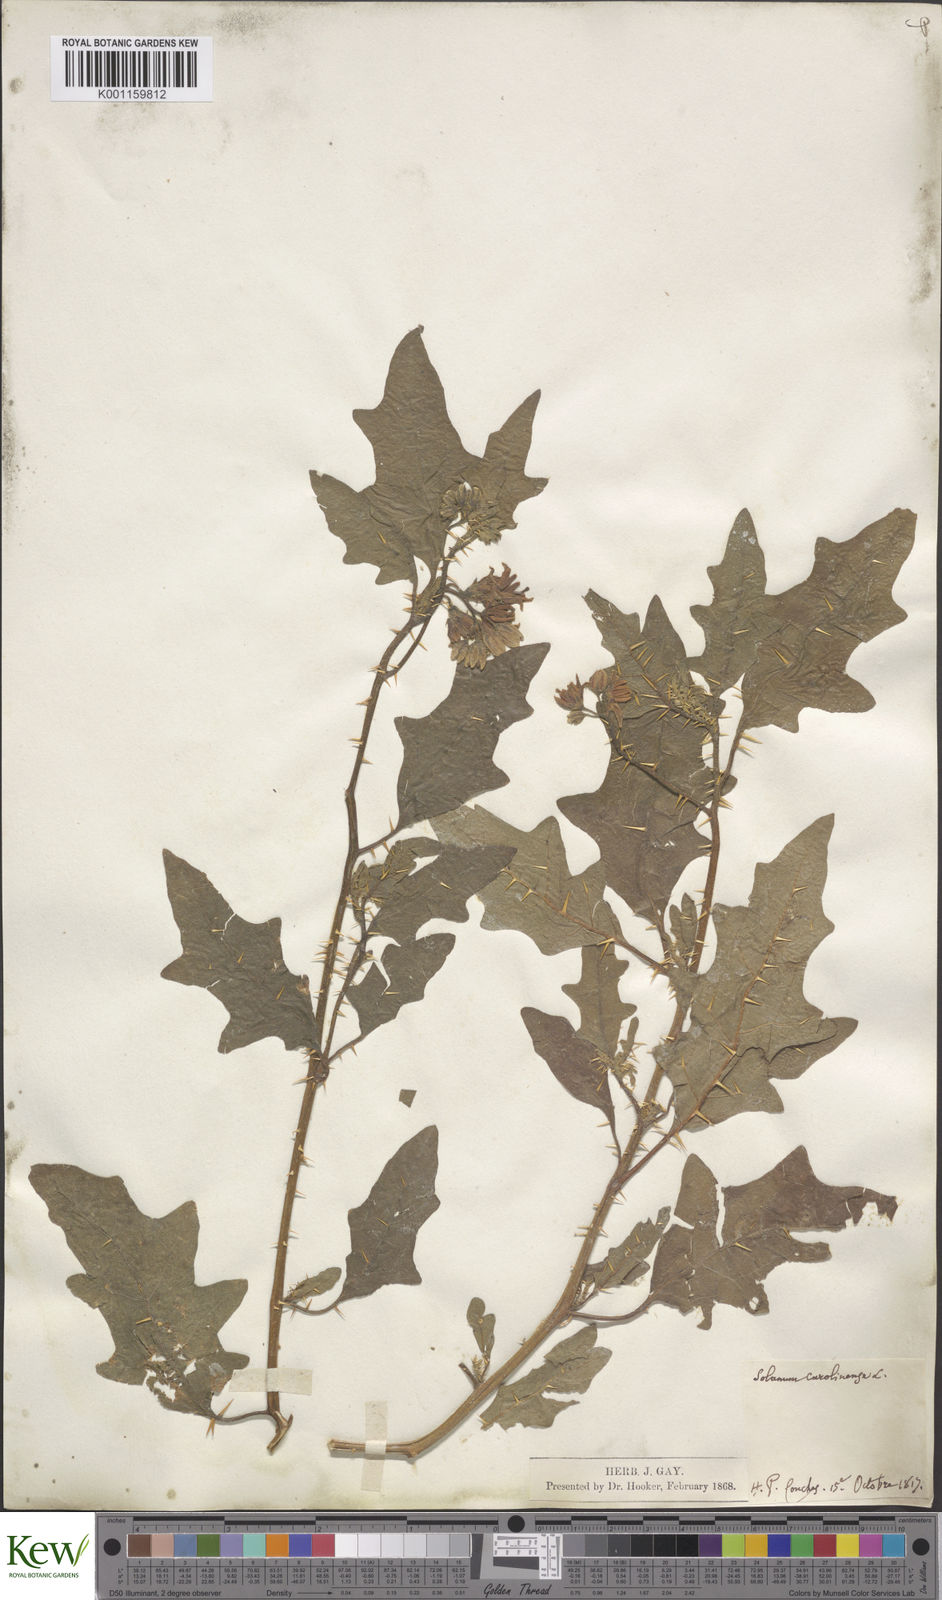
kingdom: Plantae
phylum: Tracheophyta
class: Magnoliopsida
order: Solanales
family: Solanaceae
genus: Solanum
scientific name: Solanum carolinense
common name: Horse-nettle
